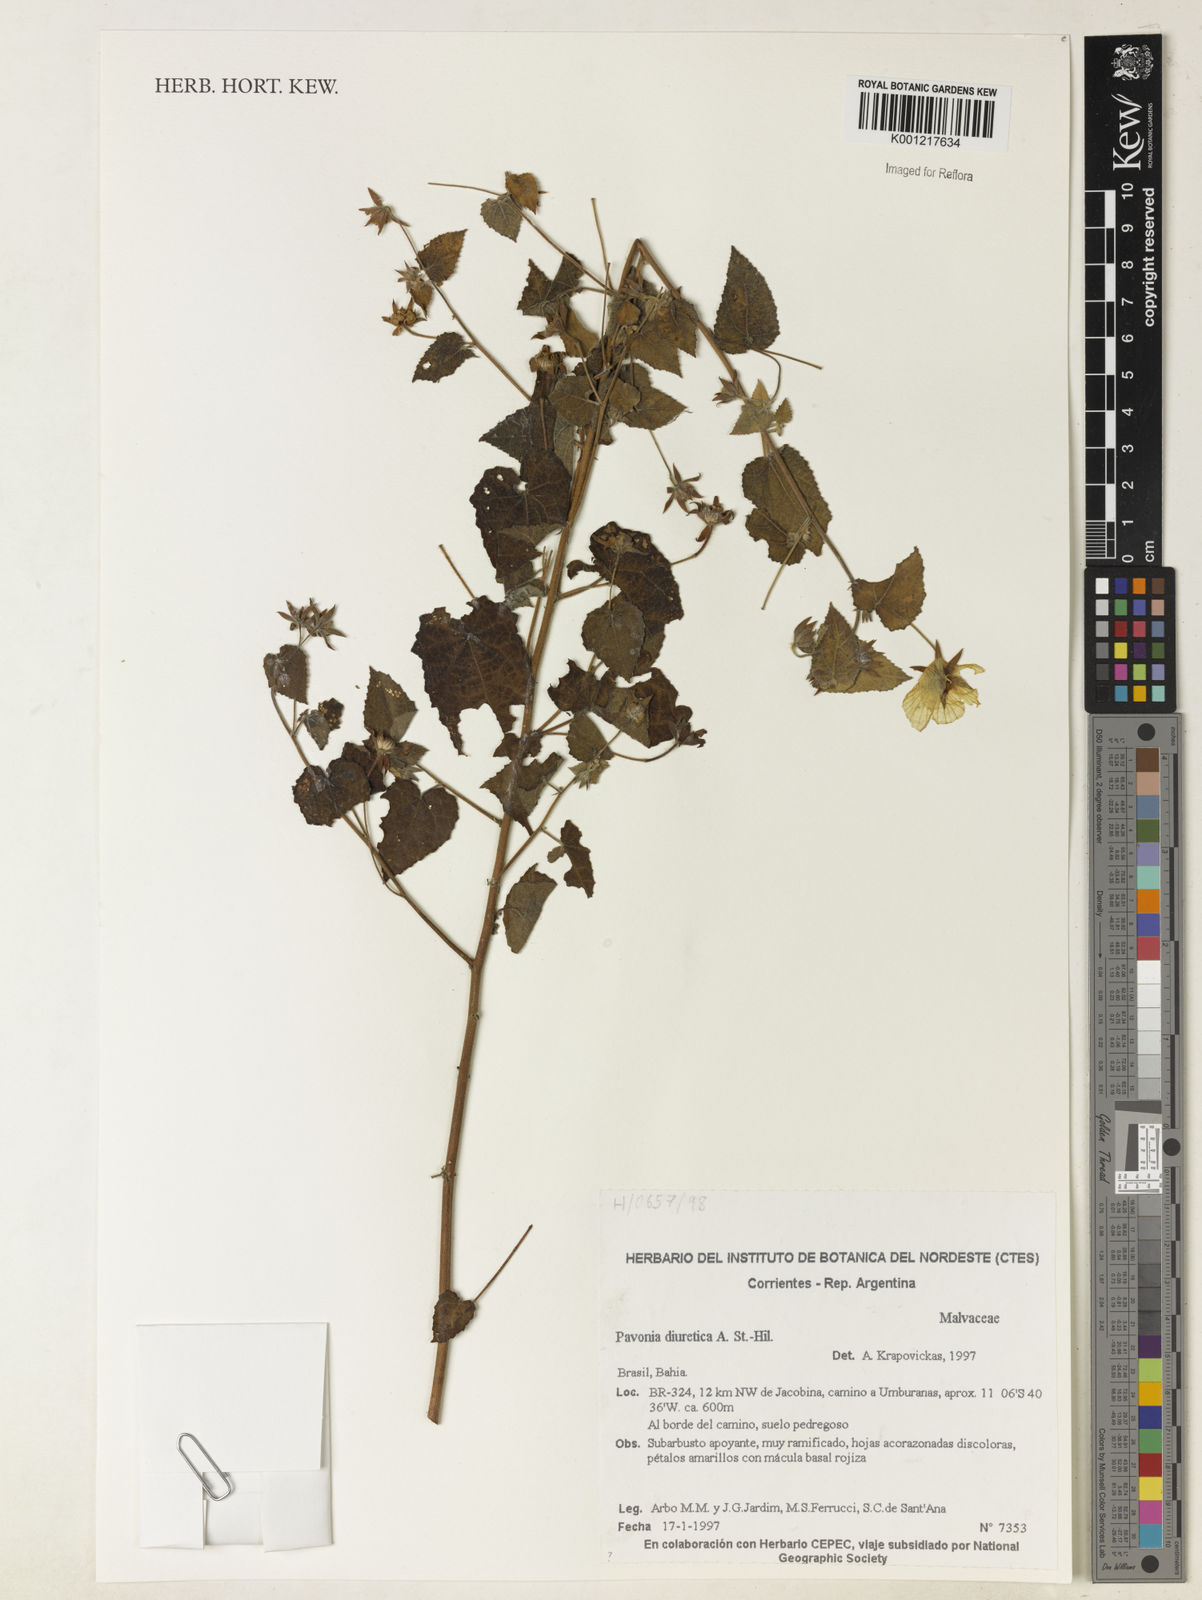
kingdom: Plantae
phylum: Tracheophyta
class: Magnoliopsida
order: Malvales
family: Malvaceae
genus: Pavonia
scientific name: Pavonia sidifolia
